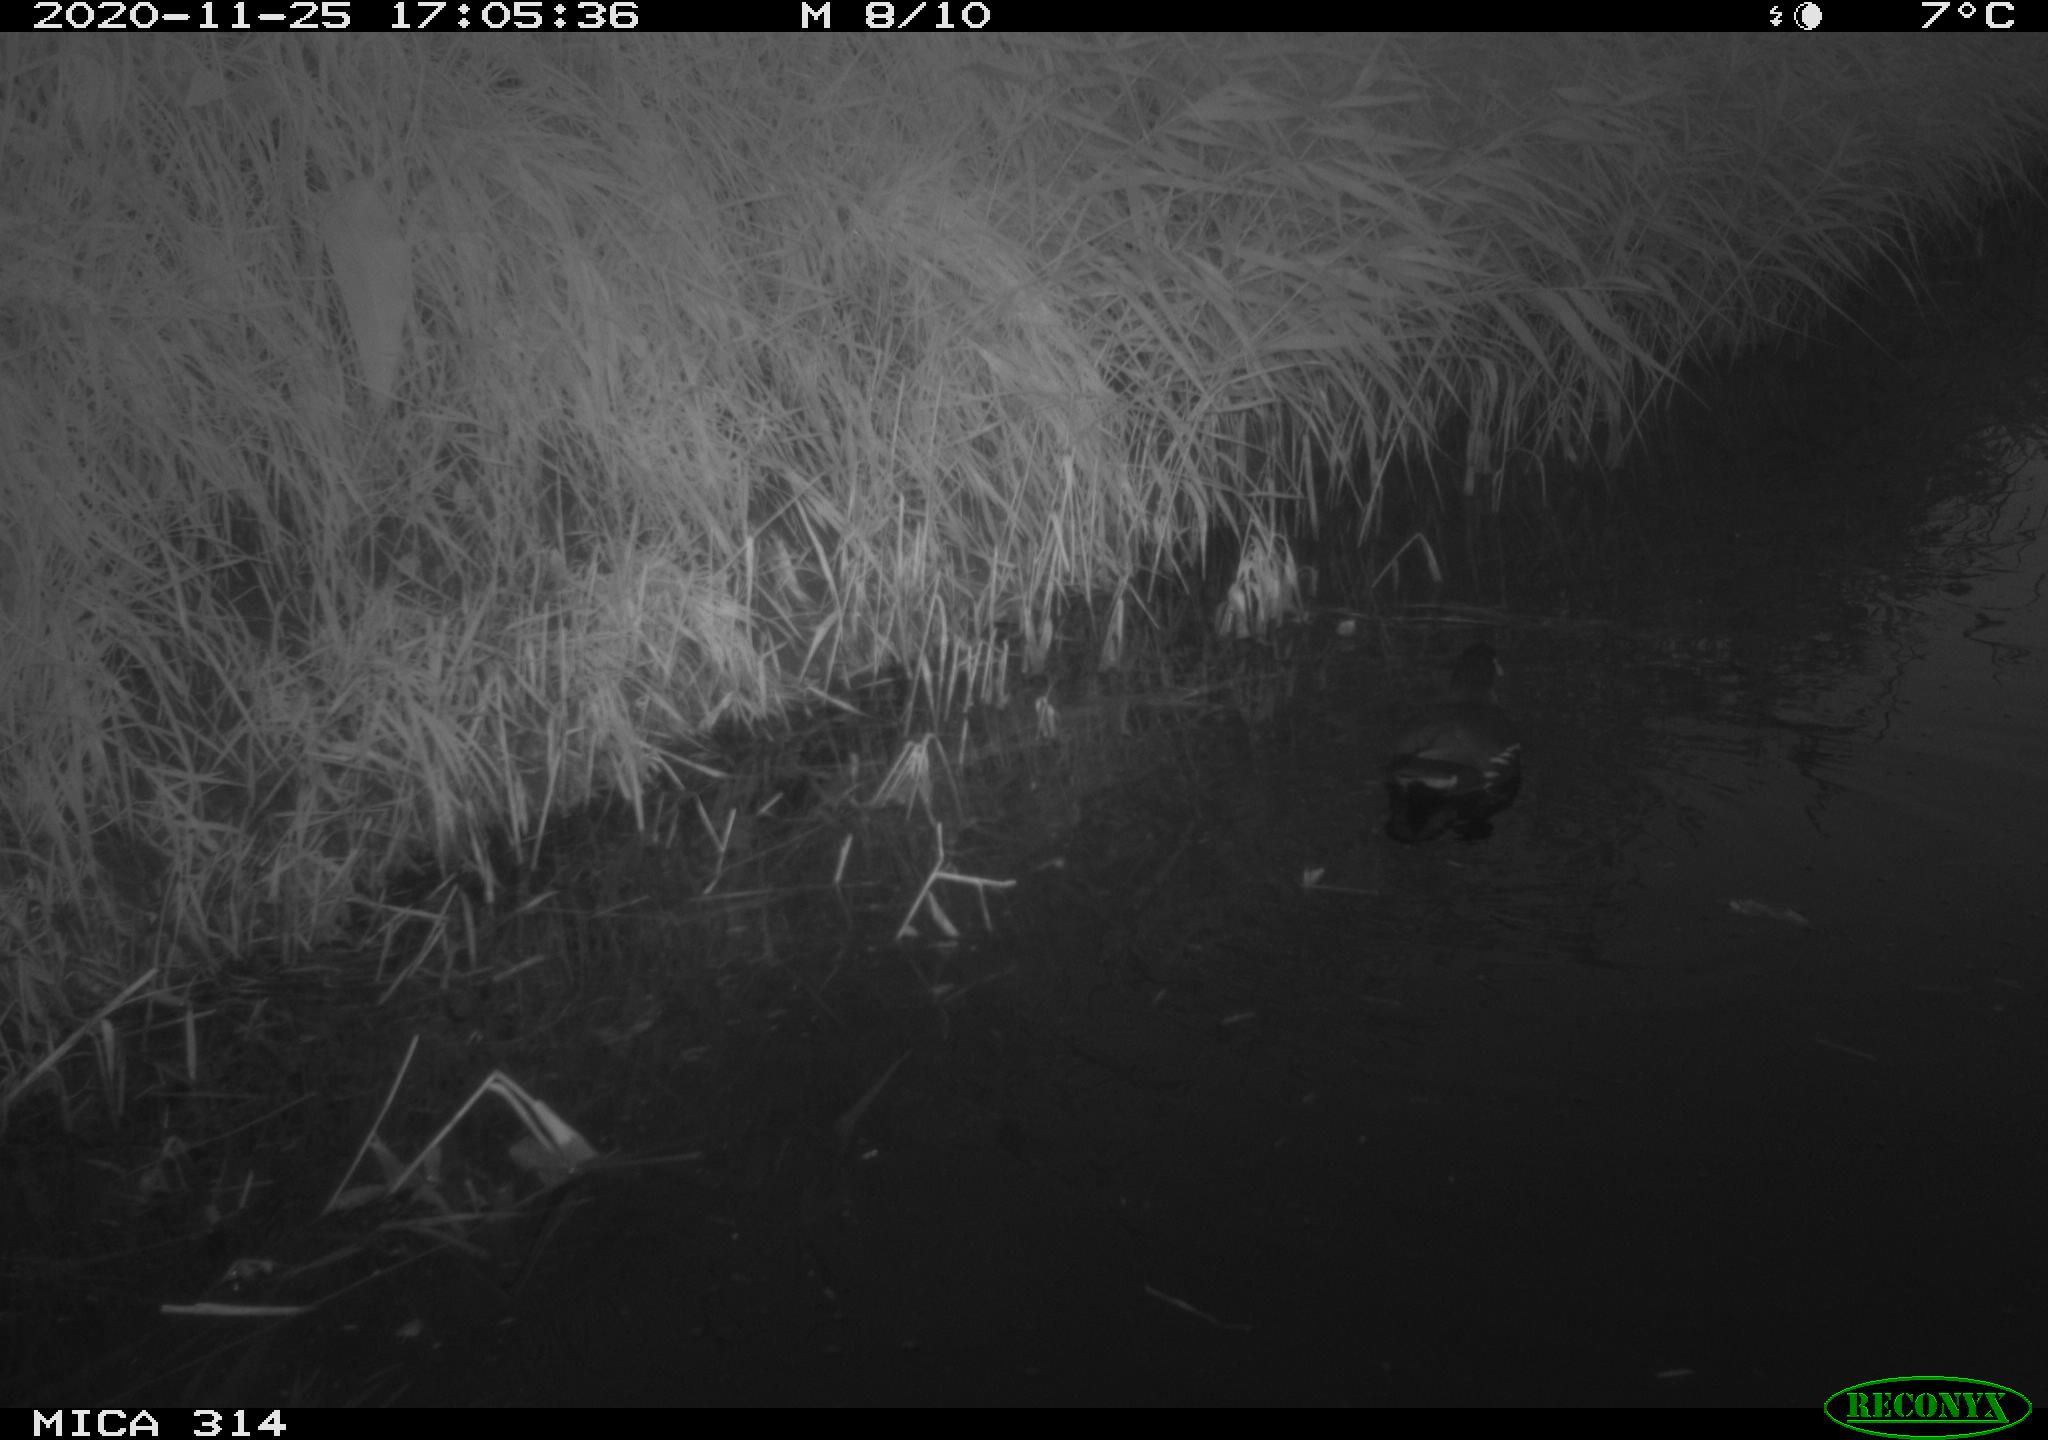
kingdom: Animalia
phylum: Chordata
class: Aves
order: Gruiformes
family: Rallidae
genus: Gallinula
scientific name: Gallinula chloropus
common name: Common moorhen
